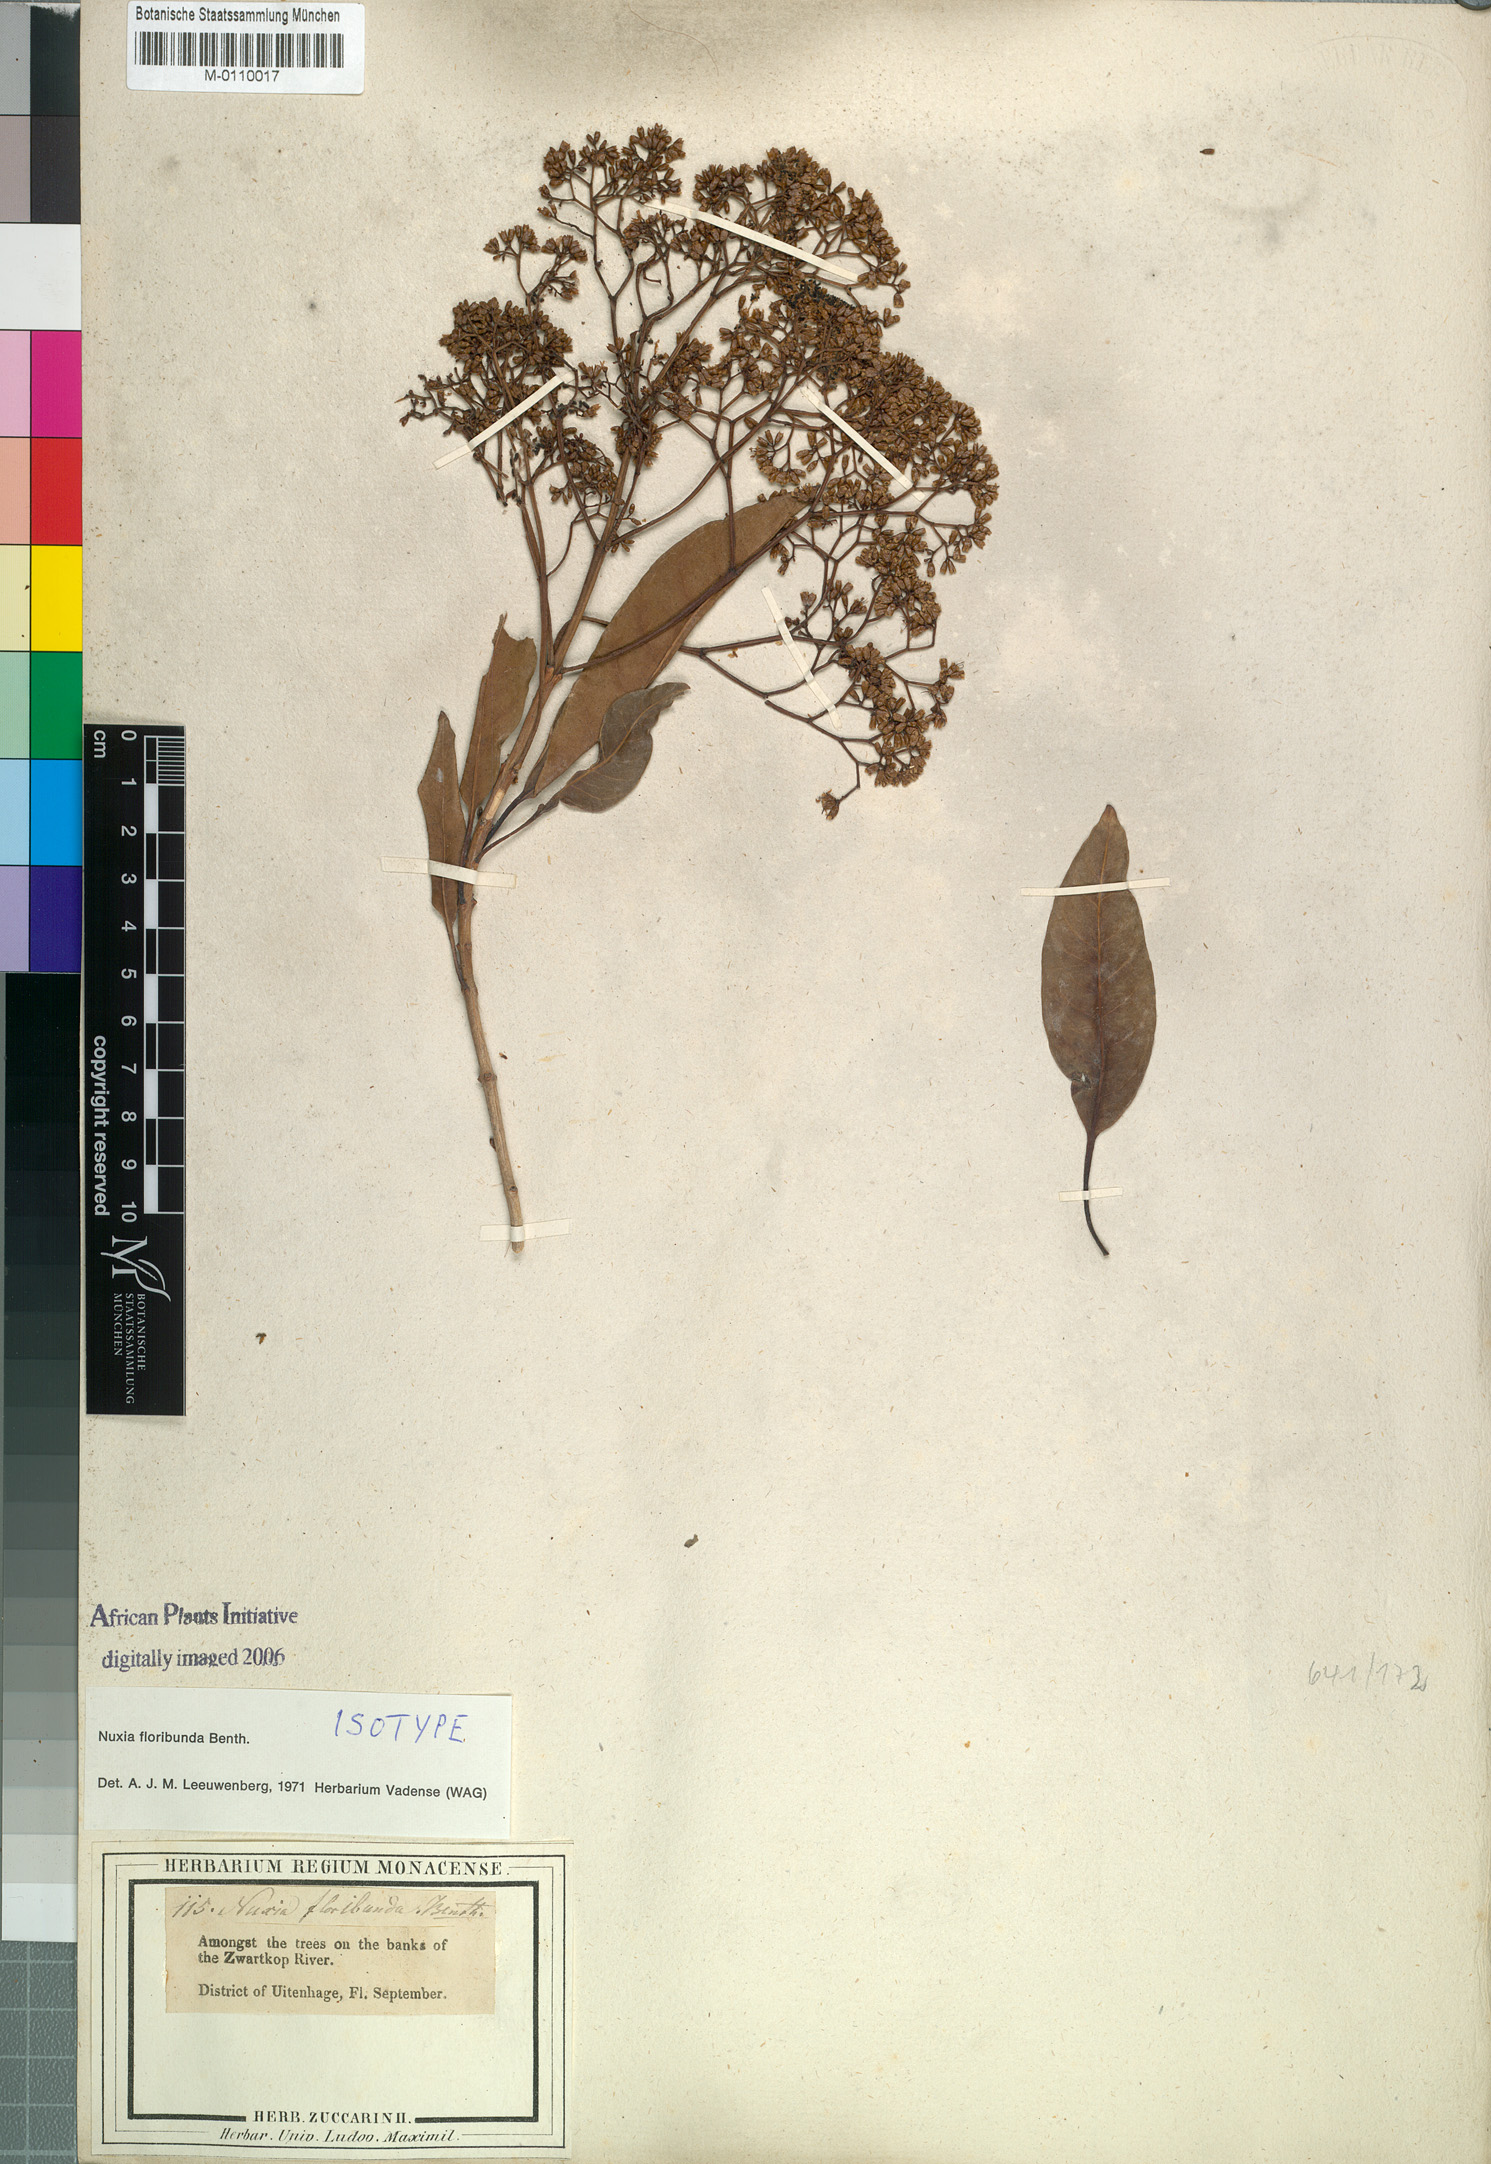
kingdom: Plantae
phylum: Tracheophyta
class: Magnoliopsida
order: Lamiales
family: Stilbaceae
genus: Nuxia
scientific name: Nuxia floribunda
